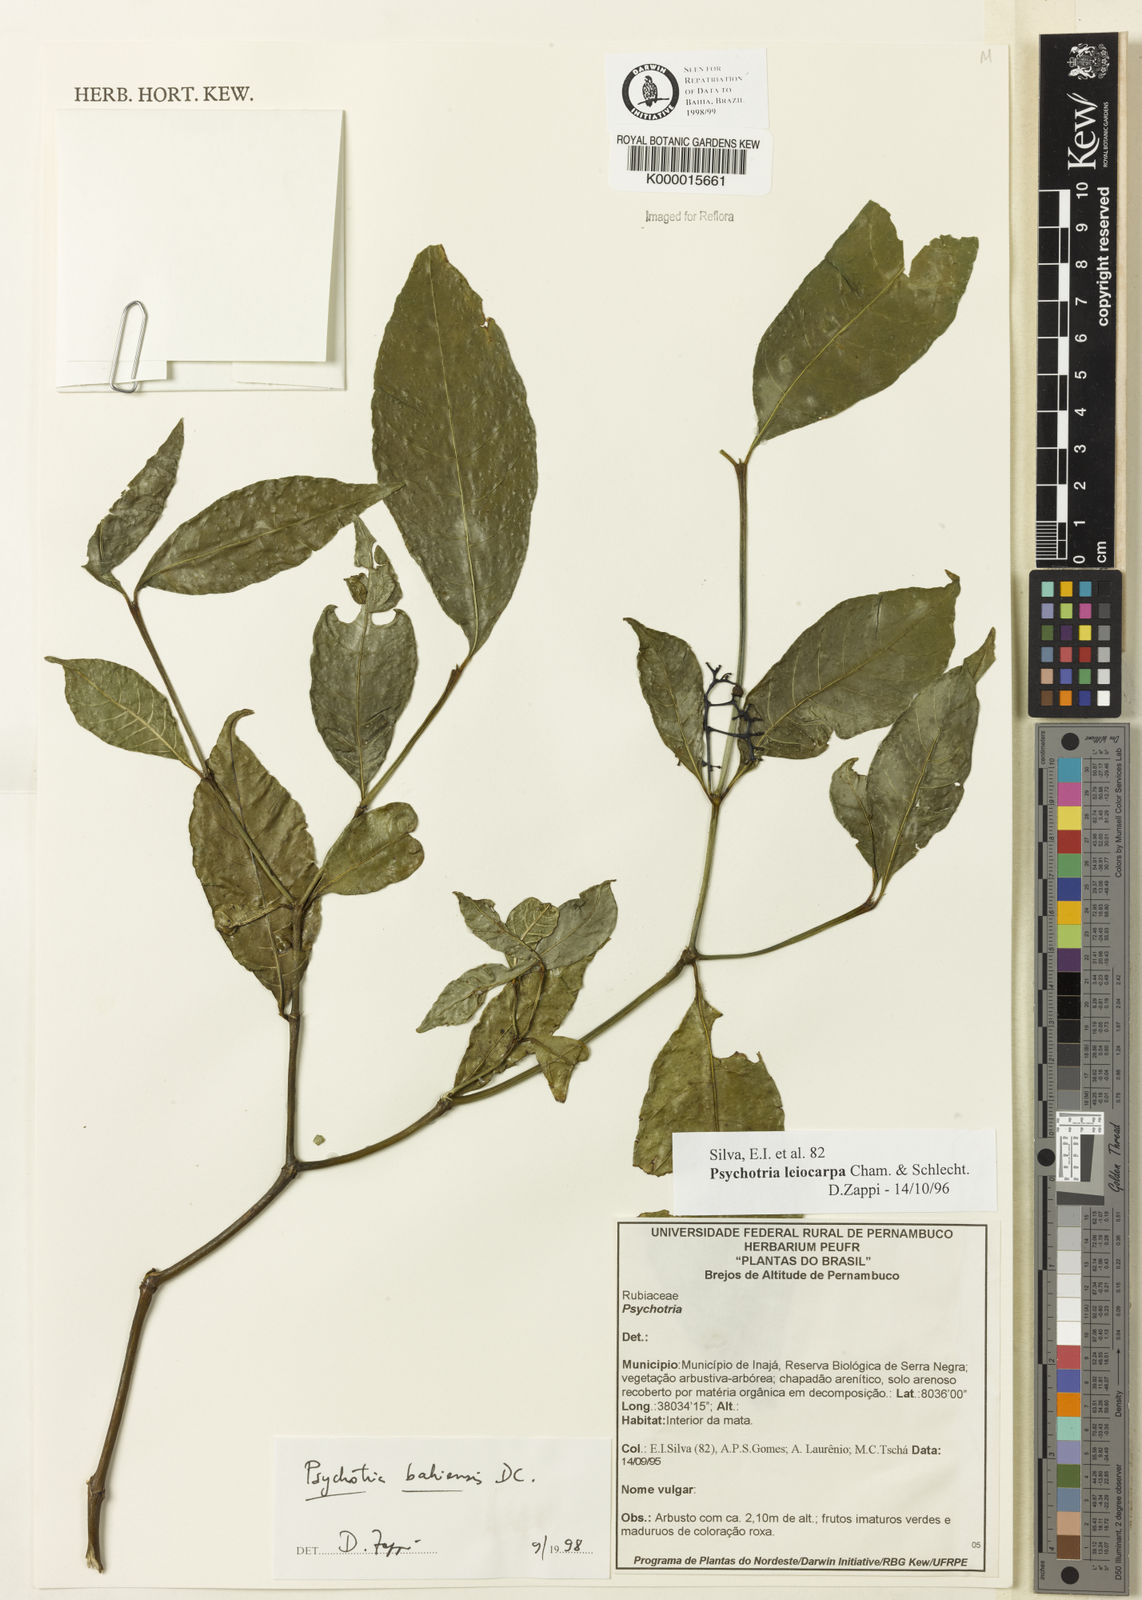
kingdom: Plantae
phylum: Tracheophyta
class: Magnoliopsida
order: Gentianales
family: Rubiaceae
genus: Psychotria
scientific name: Psychotria bahiensis
